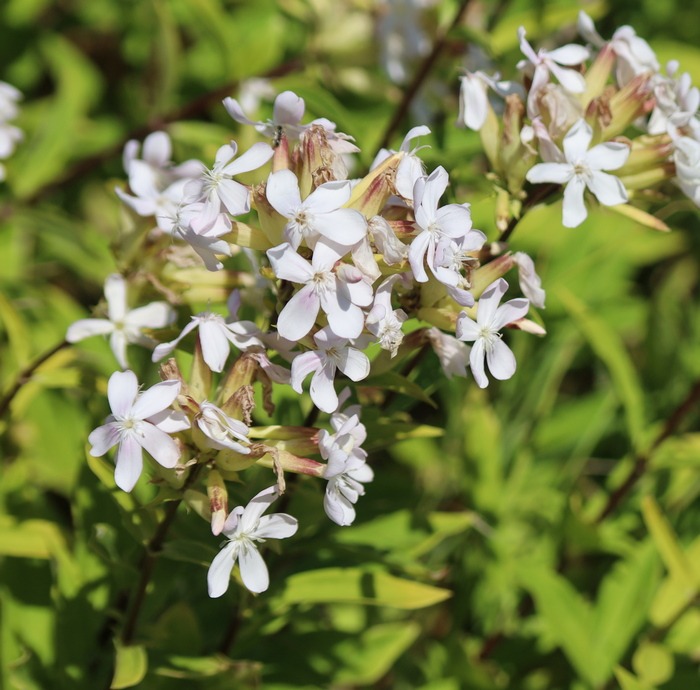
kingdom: Plantae
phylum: Tracheophyta
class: Magnoliopsida
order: Caryophyllales
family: Caryophyllaceae
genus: Saponaria
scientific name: Saponaria officinalis
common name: Sæbeurt
